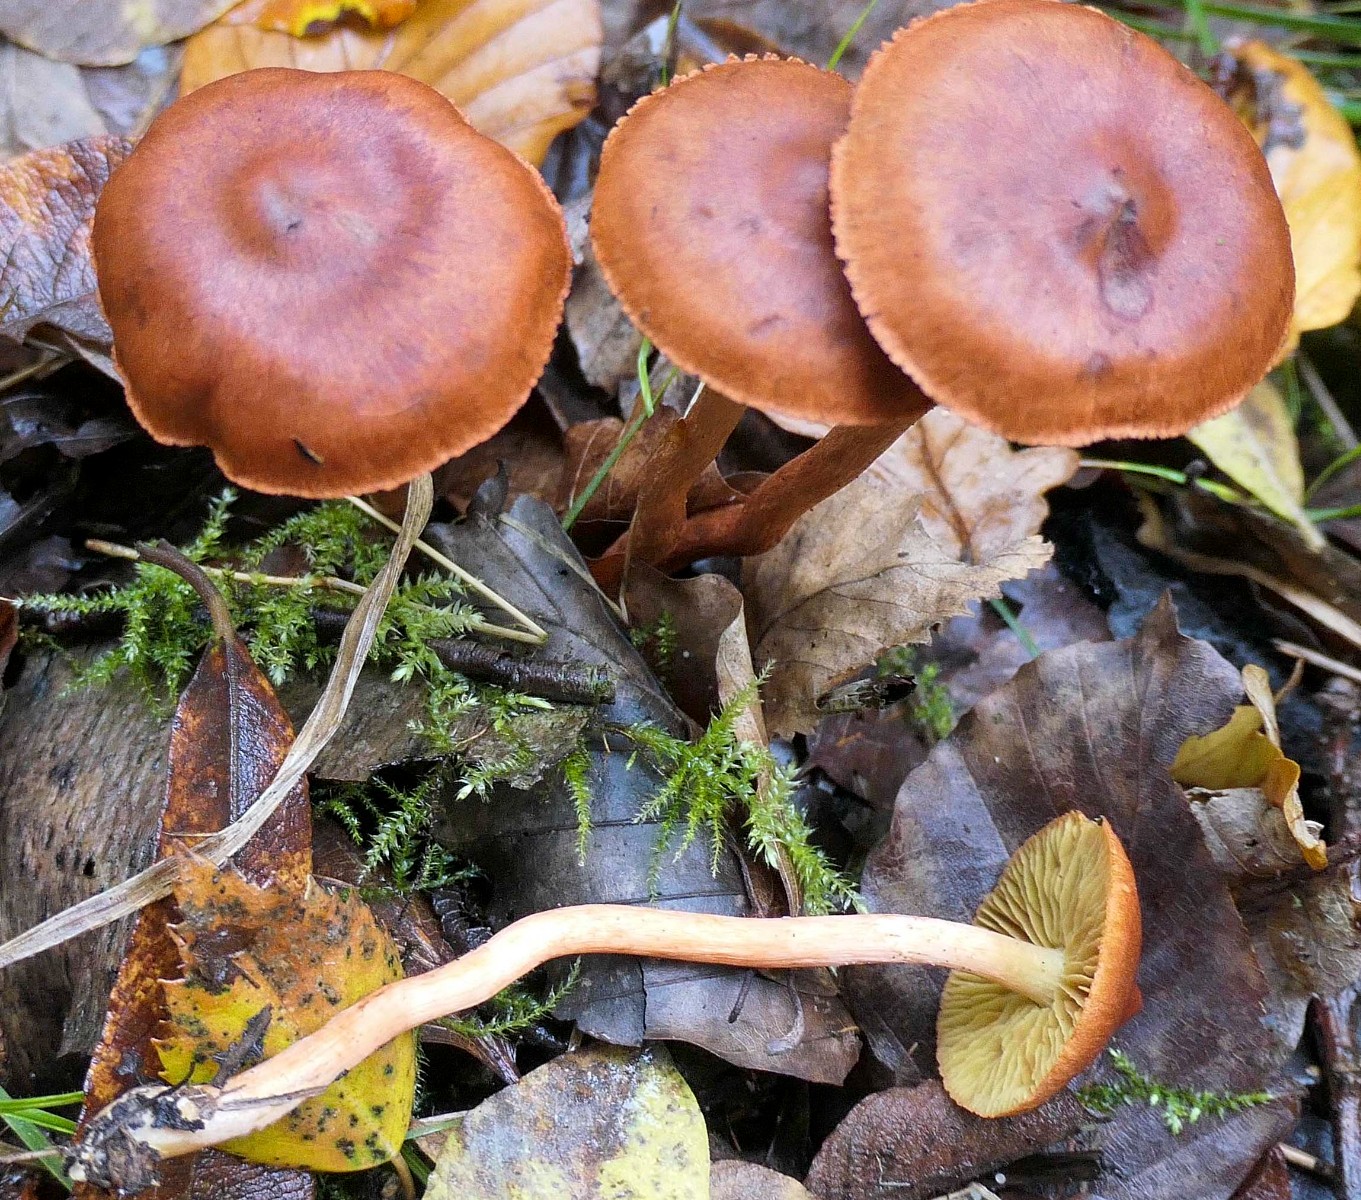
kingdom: Fungi
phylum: Basidiomycota
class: Agaricomycetes
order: Agaricales
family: Cortinariaceae
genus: Cortinarius
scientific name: Cortinarius uliginosus
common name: mose-slørhat
